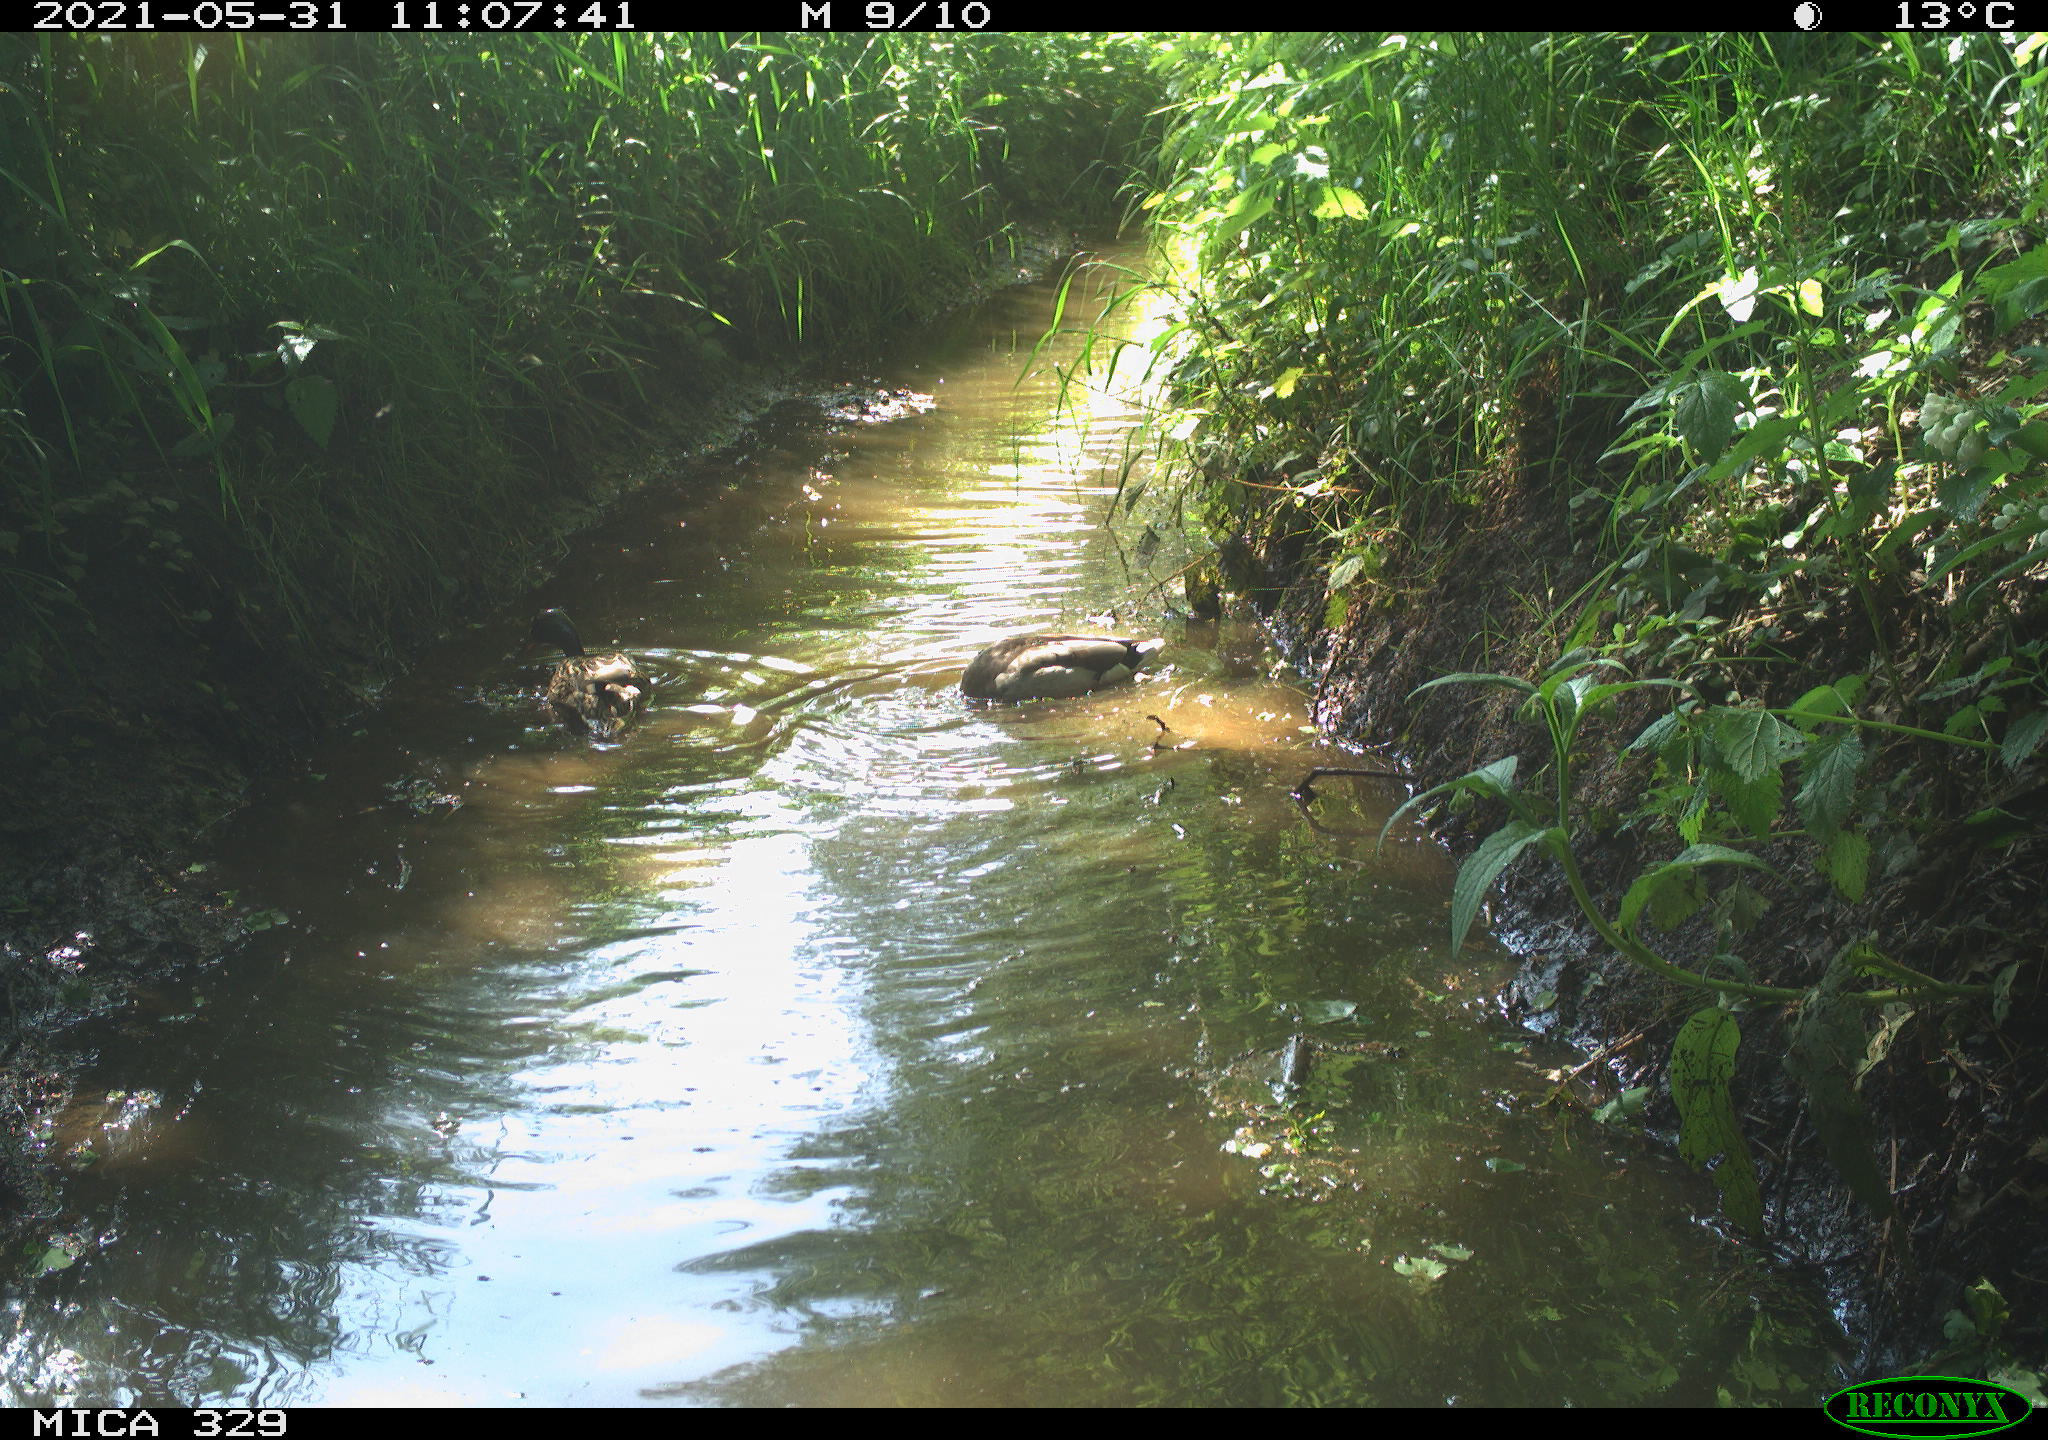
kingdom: Animalia
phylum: Chordata
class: Aves
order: Anseriformes
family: Anatidae
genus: Anas
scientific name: Anas platyrhynchos
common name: Mallard
